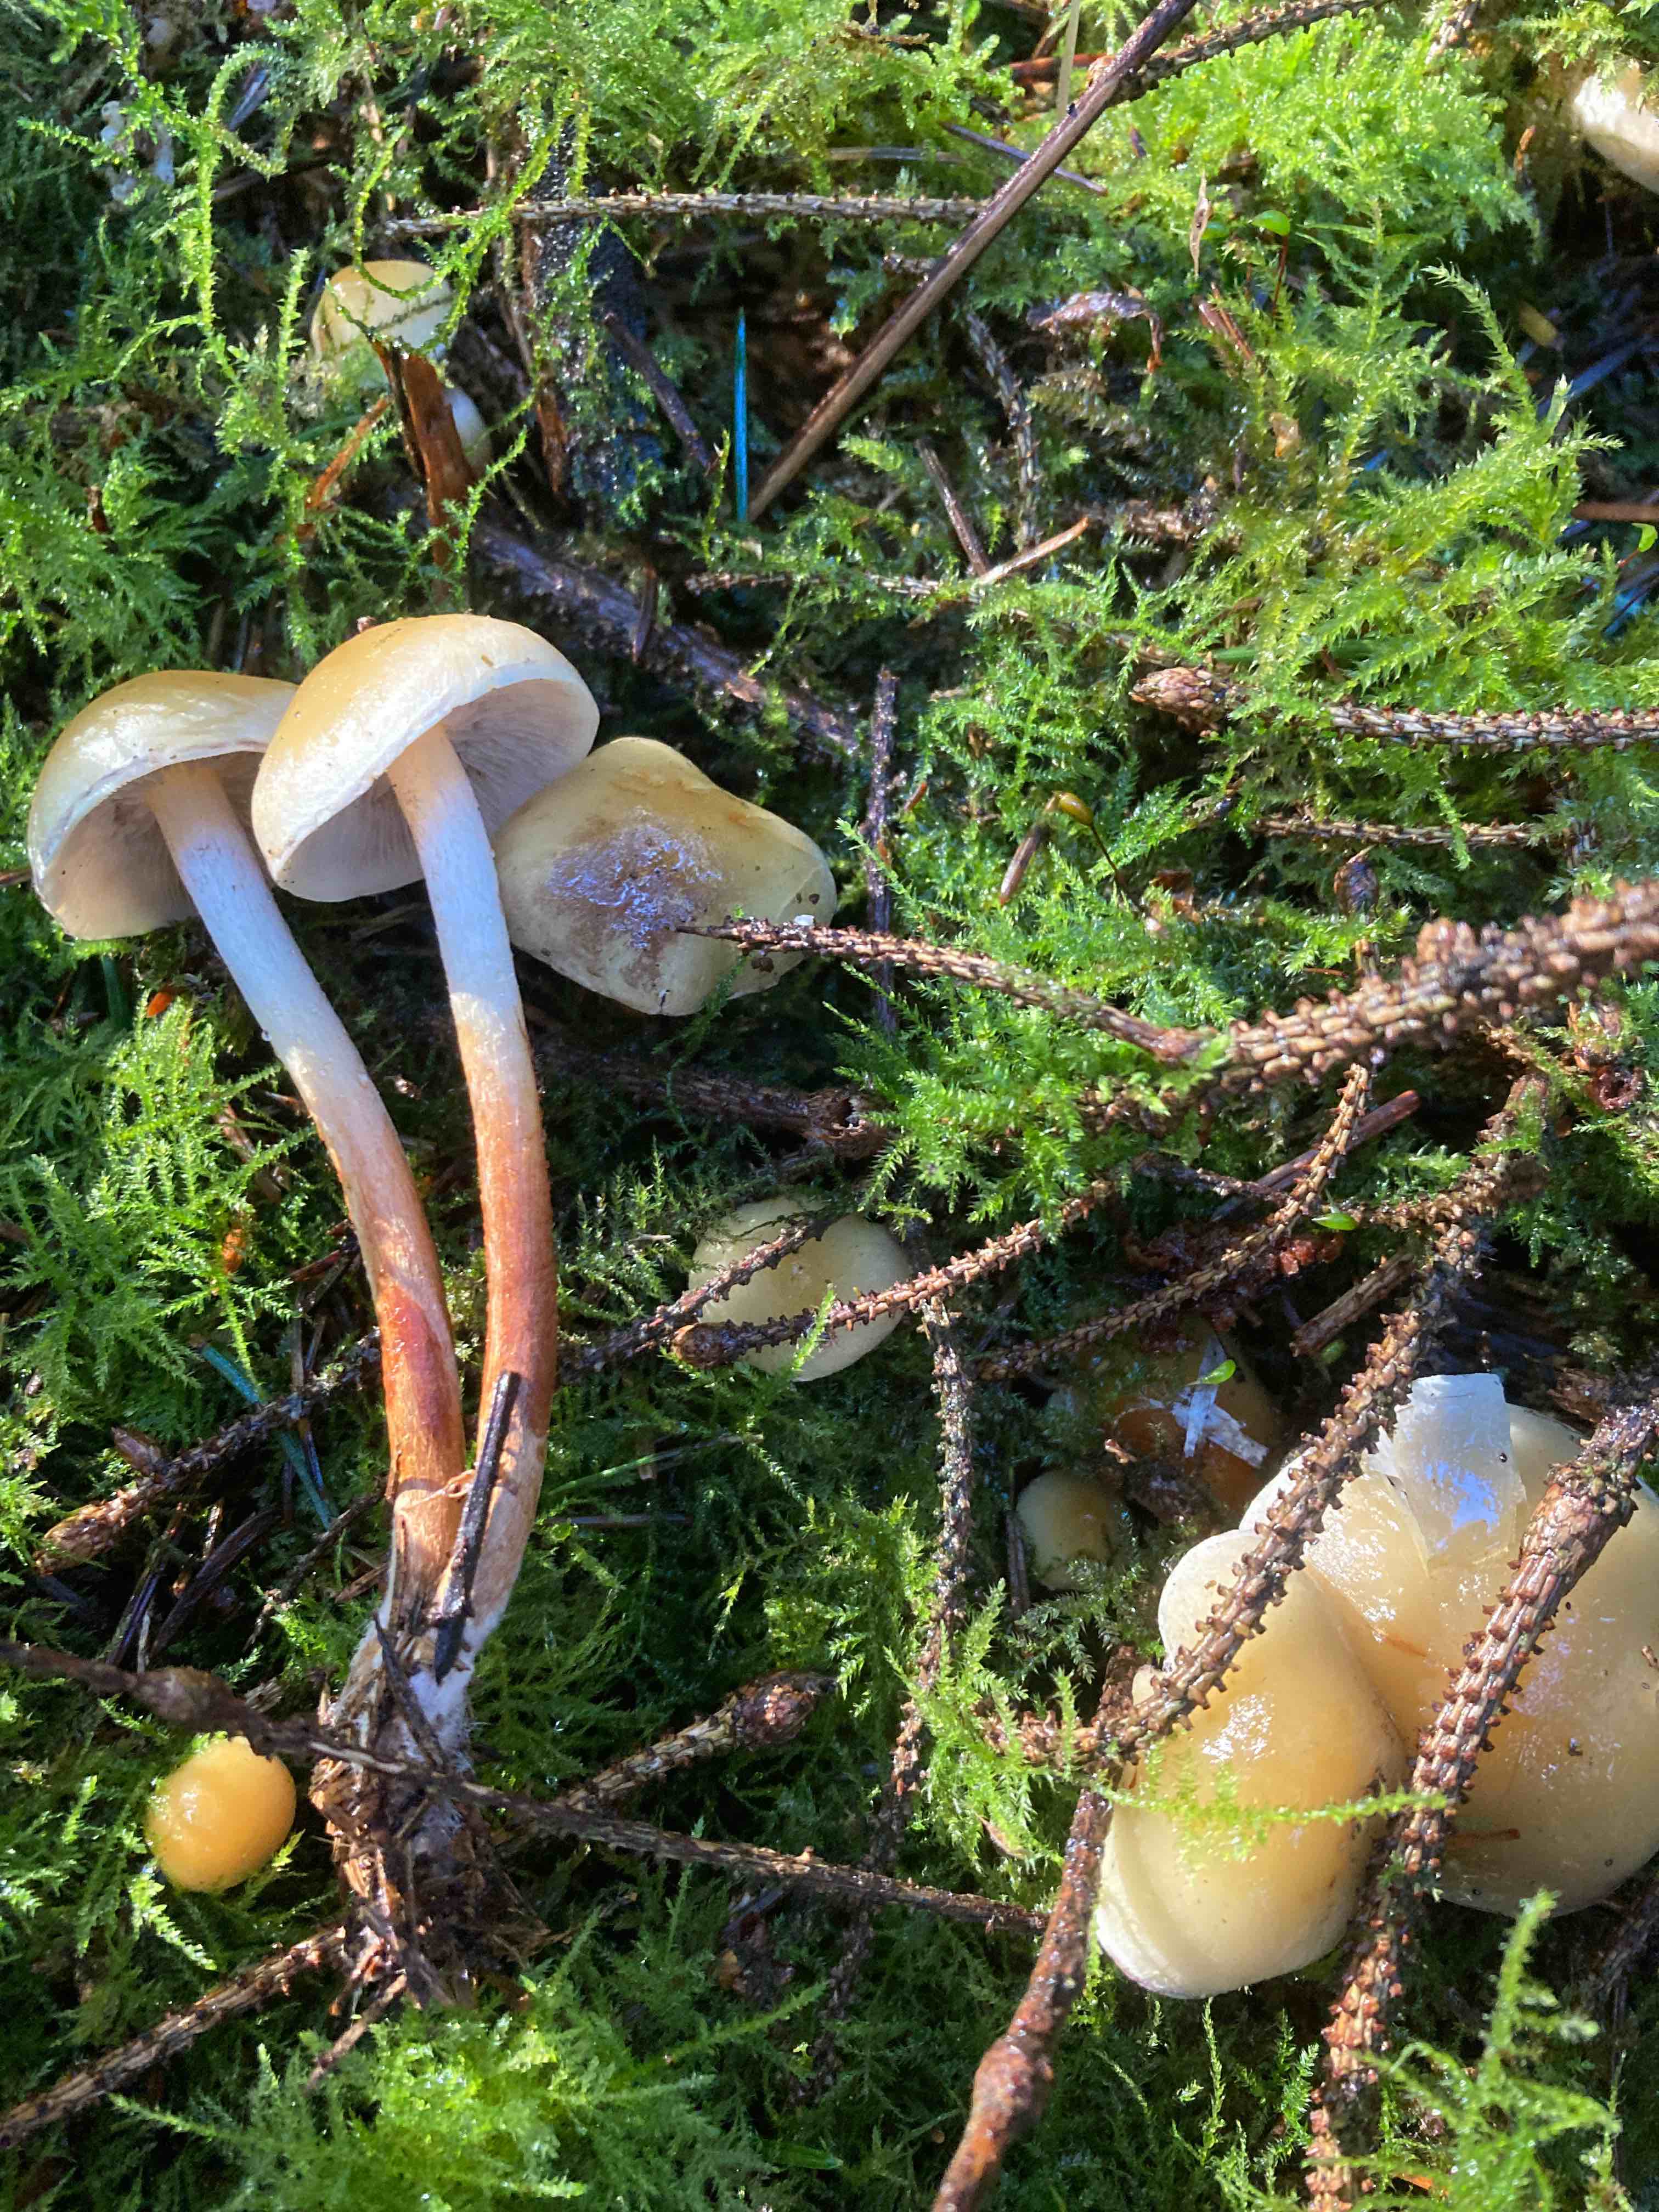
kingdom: Fungi
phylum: Basidiomycota
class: Agaricomycetes
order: Agaricales
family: Strophariaceae
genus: Hypholoma
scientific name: Hypholoma capnoides
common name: gran-svovlhat
